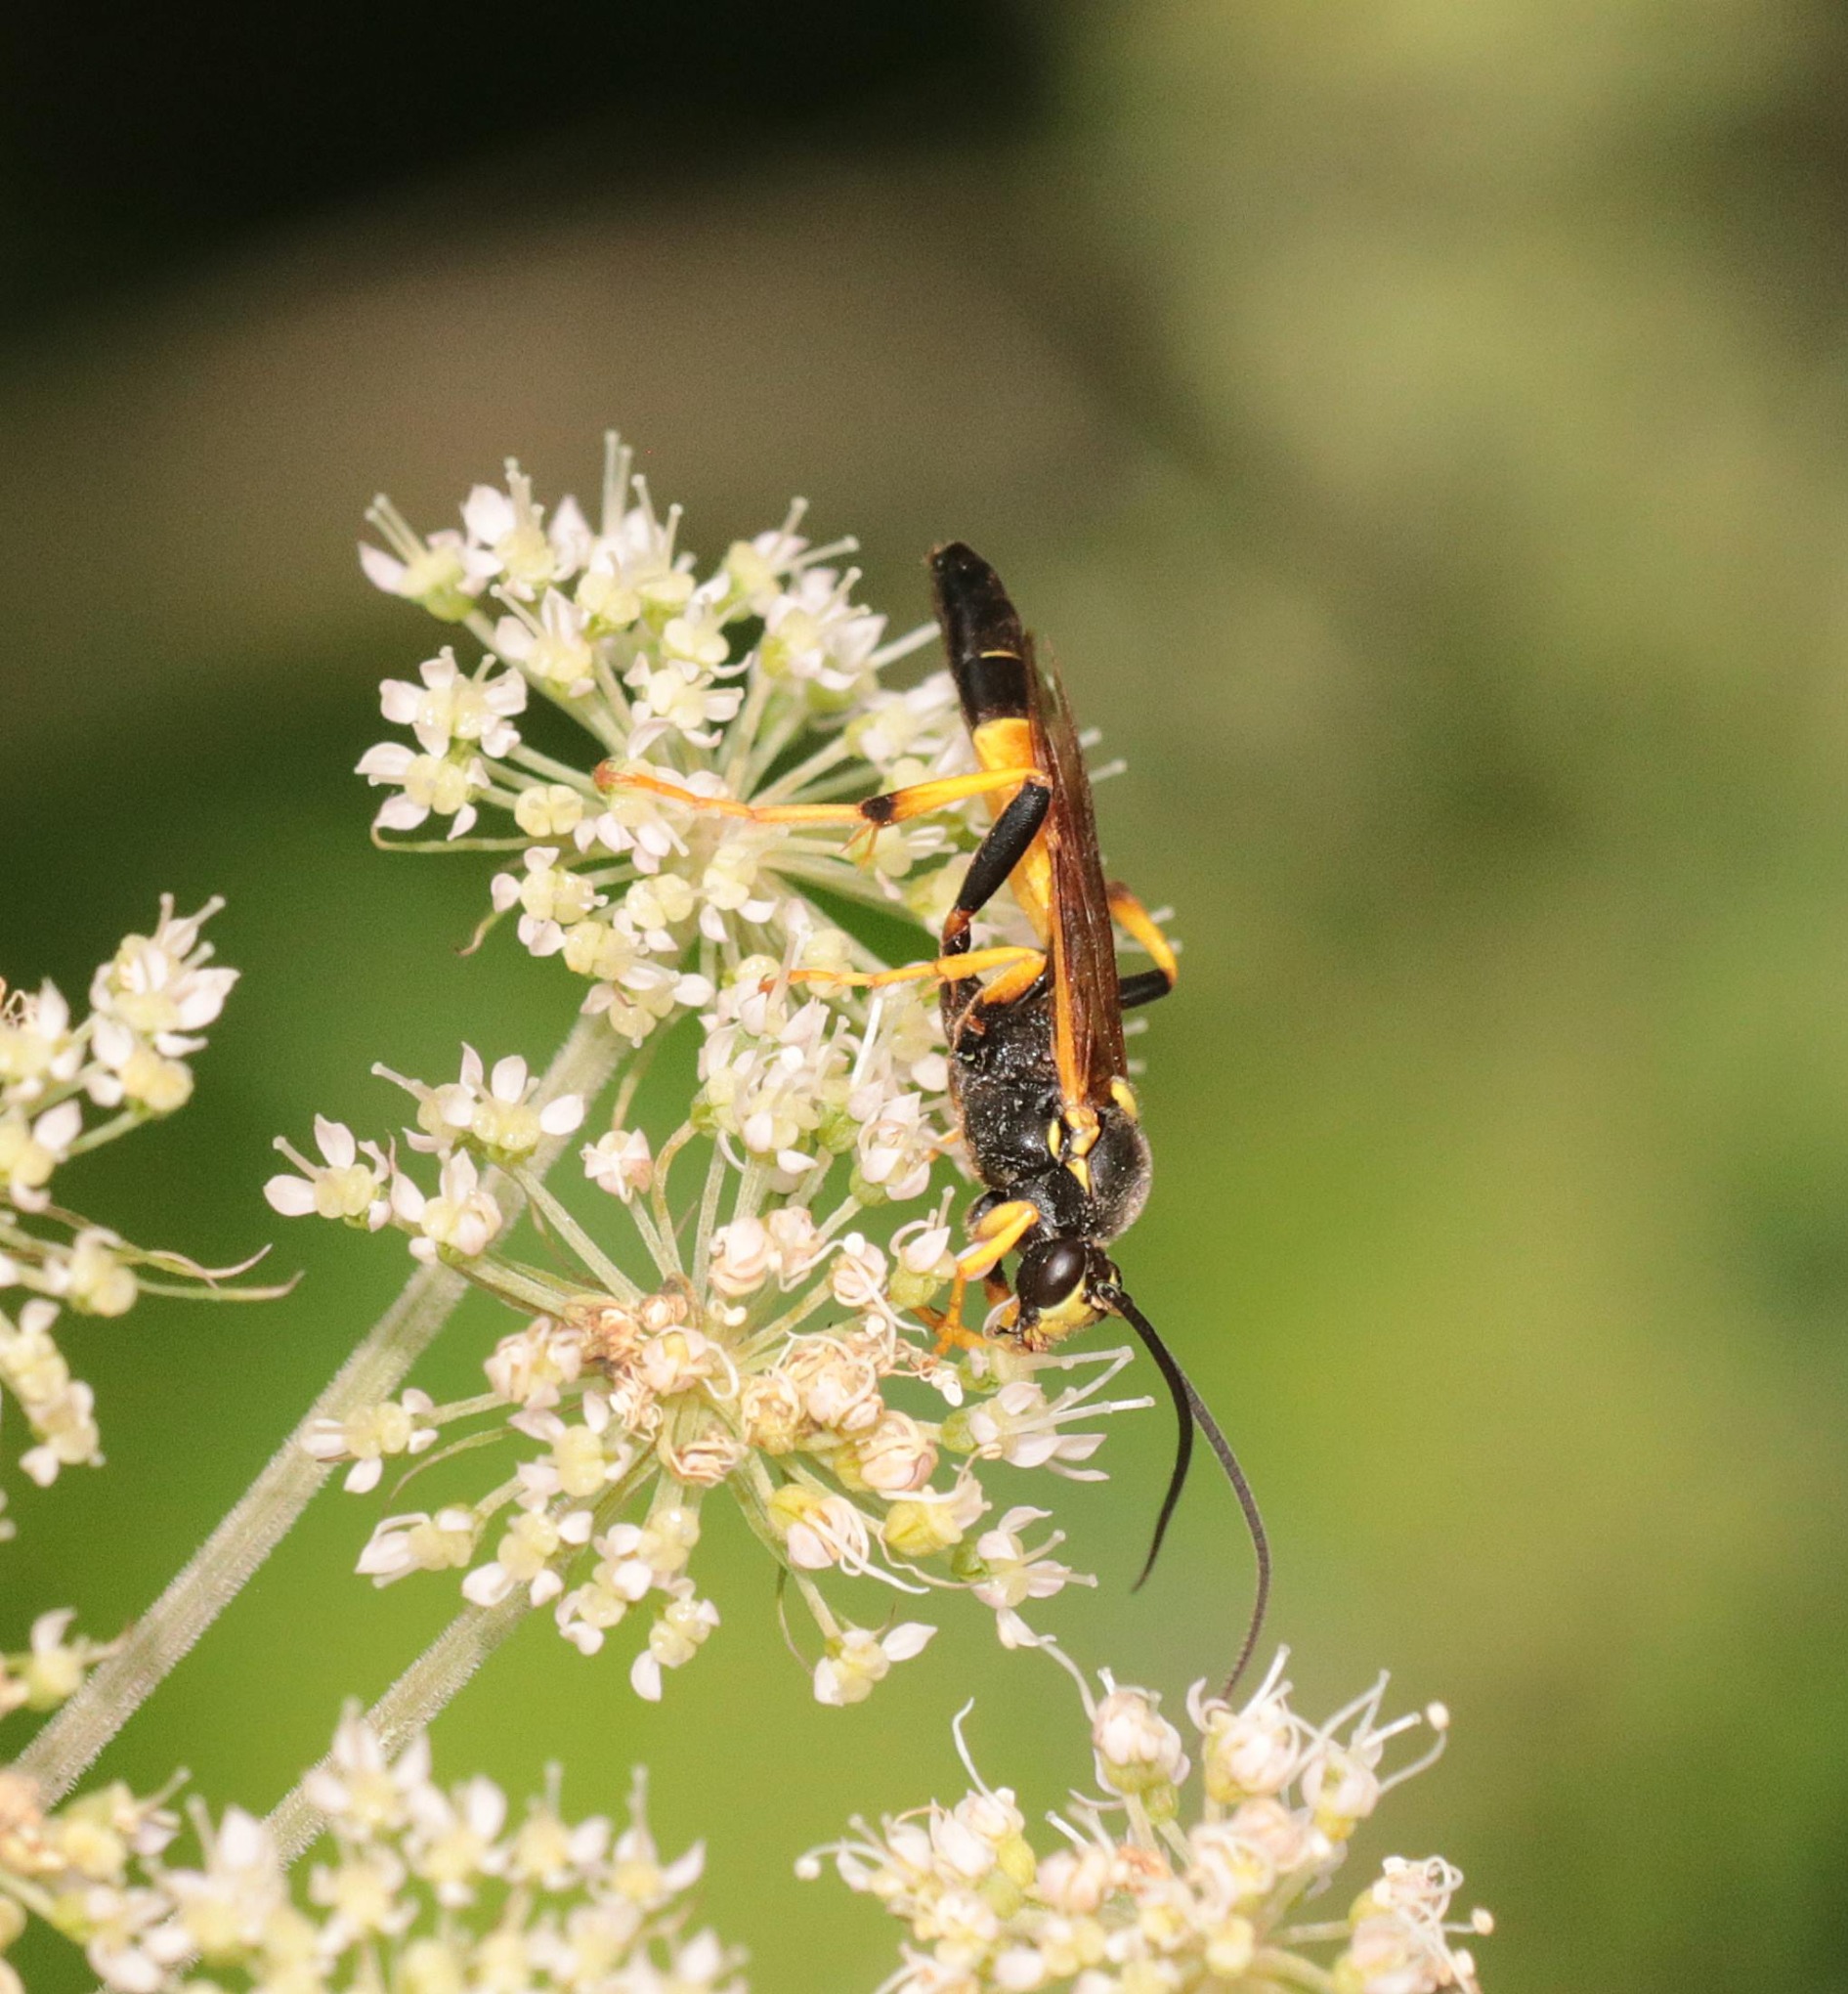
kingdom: Animalia
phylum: Arthropoda
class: Insecta
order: Hymenoptera
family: Ichneumonidae
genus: Diphyus
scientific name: Diphyus amatorius
